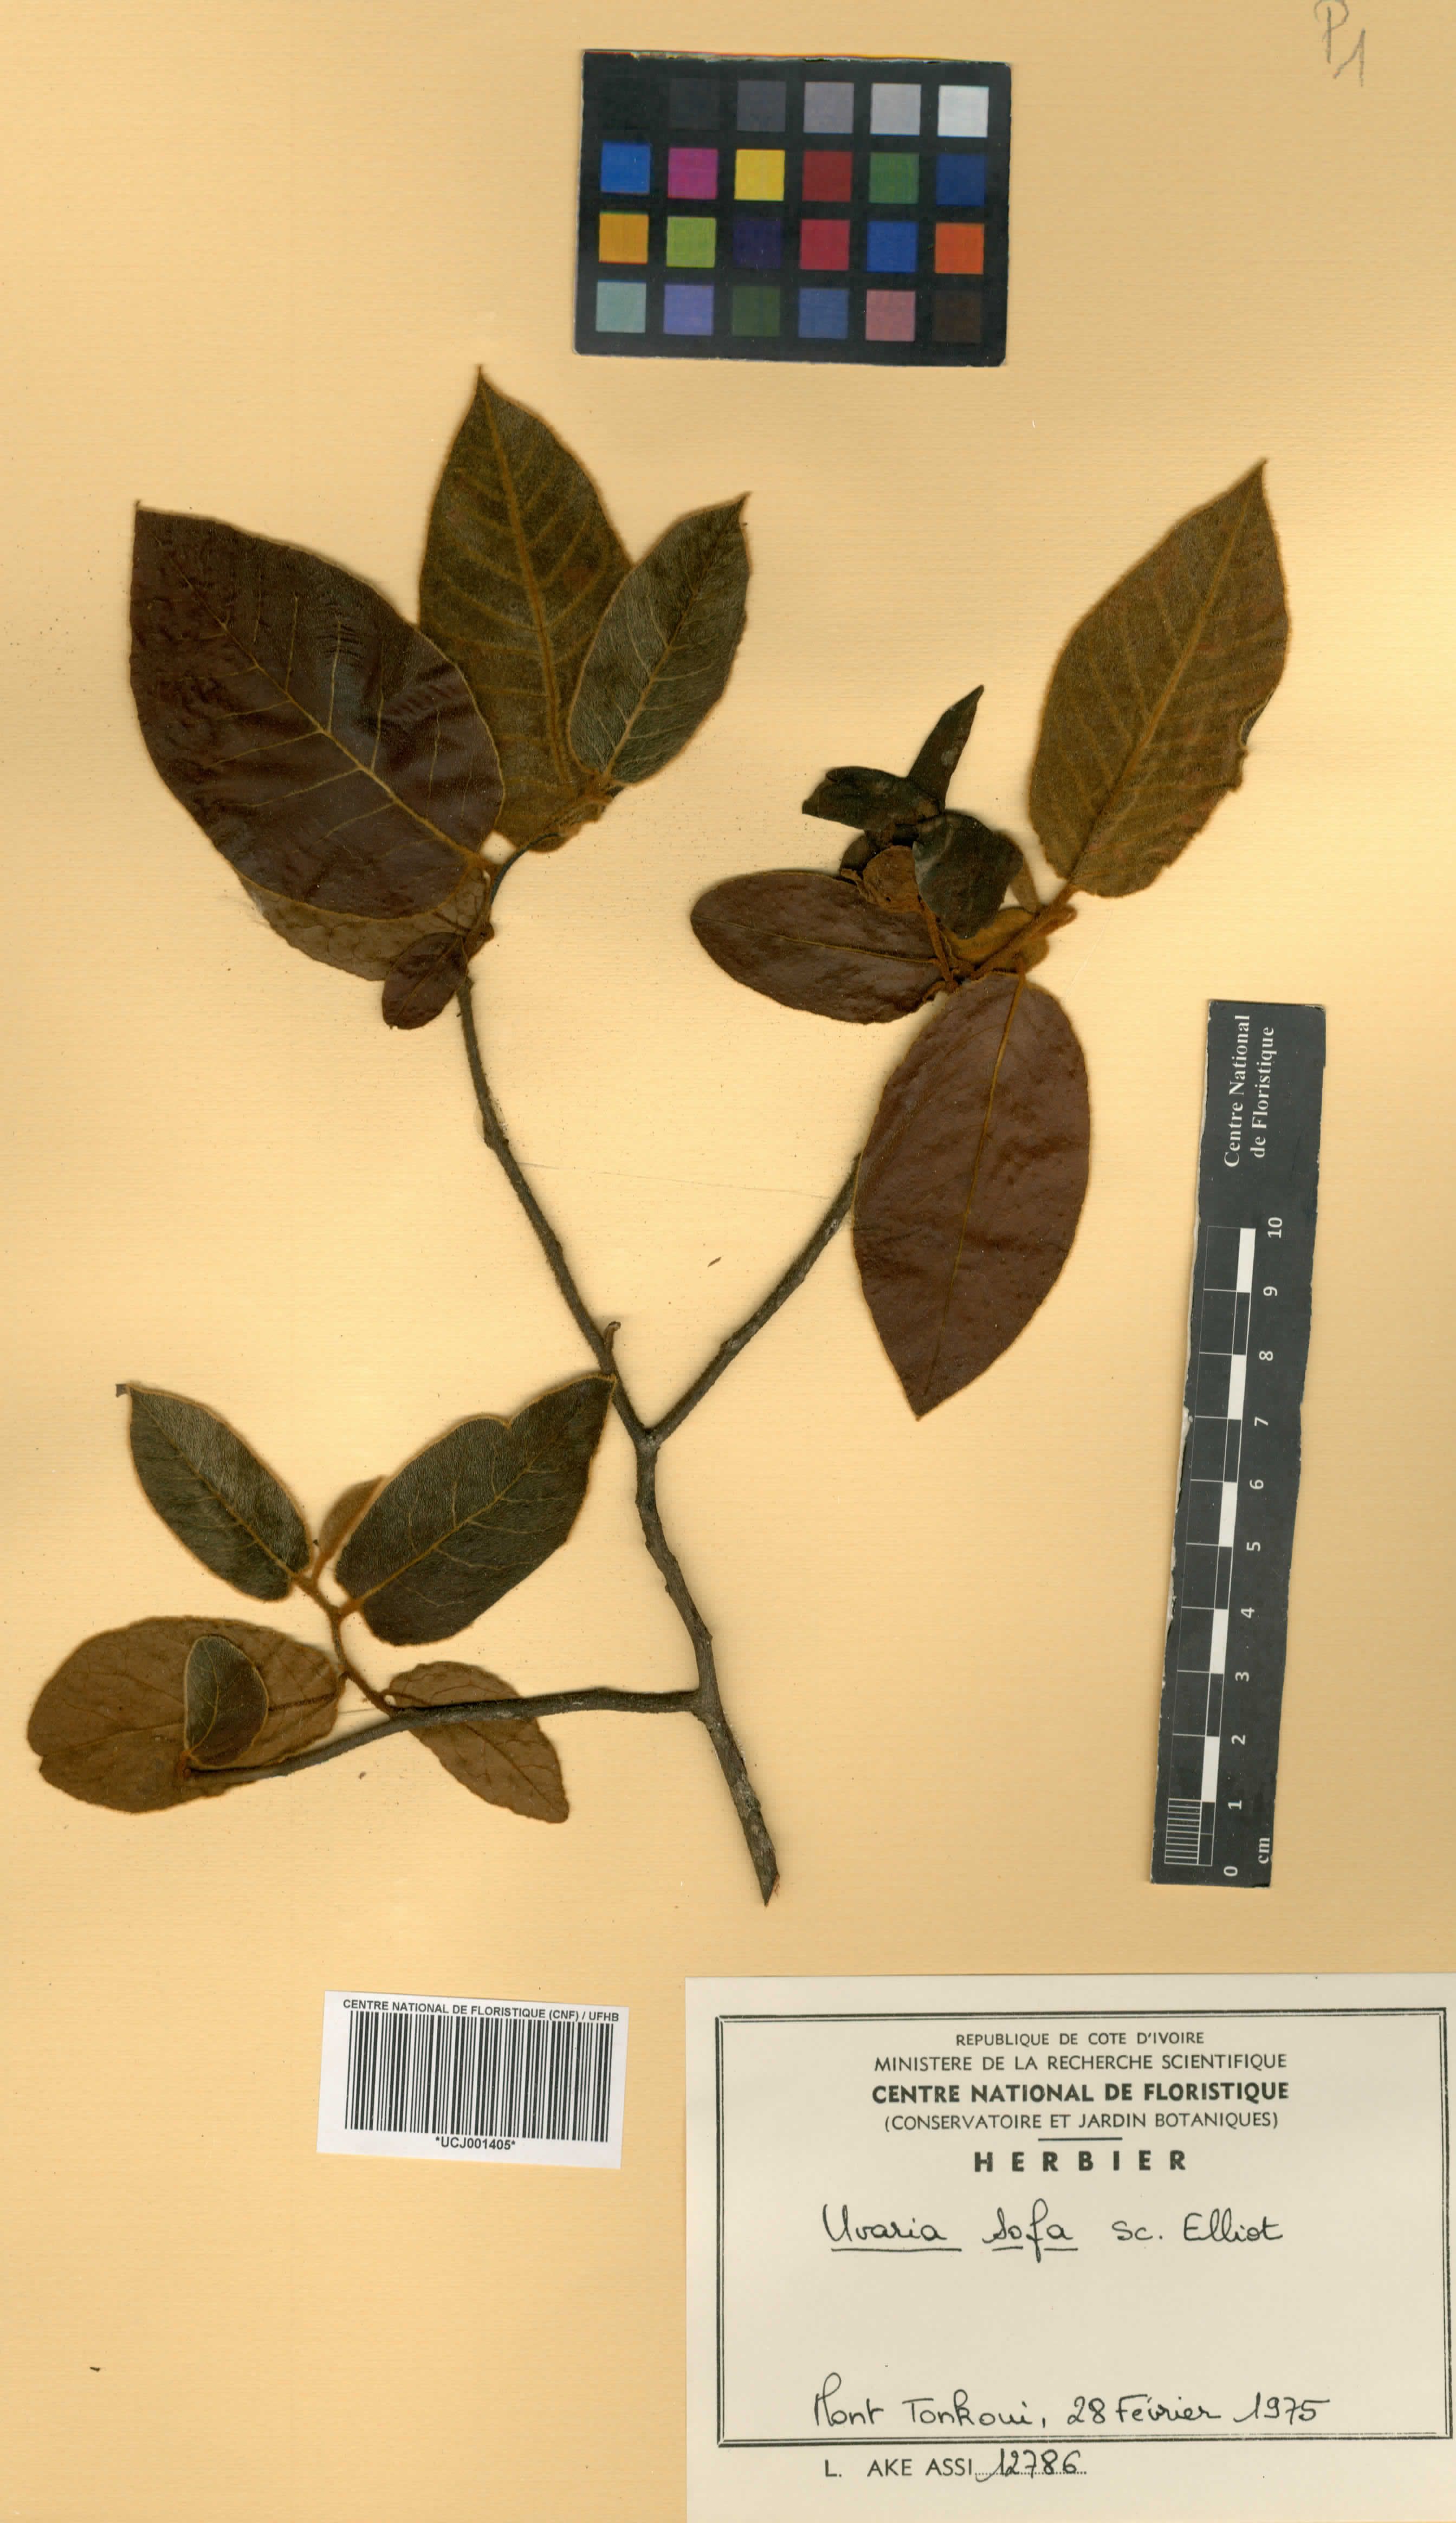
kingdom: Plantae
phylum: Tracheophyta
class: Magnoliopsida
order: Magnoliales
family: Annonaceae
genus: Uvaria
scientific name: Uvaria sofa
